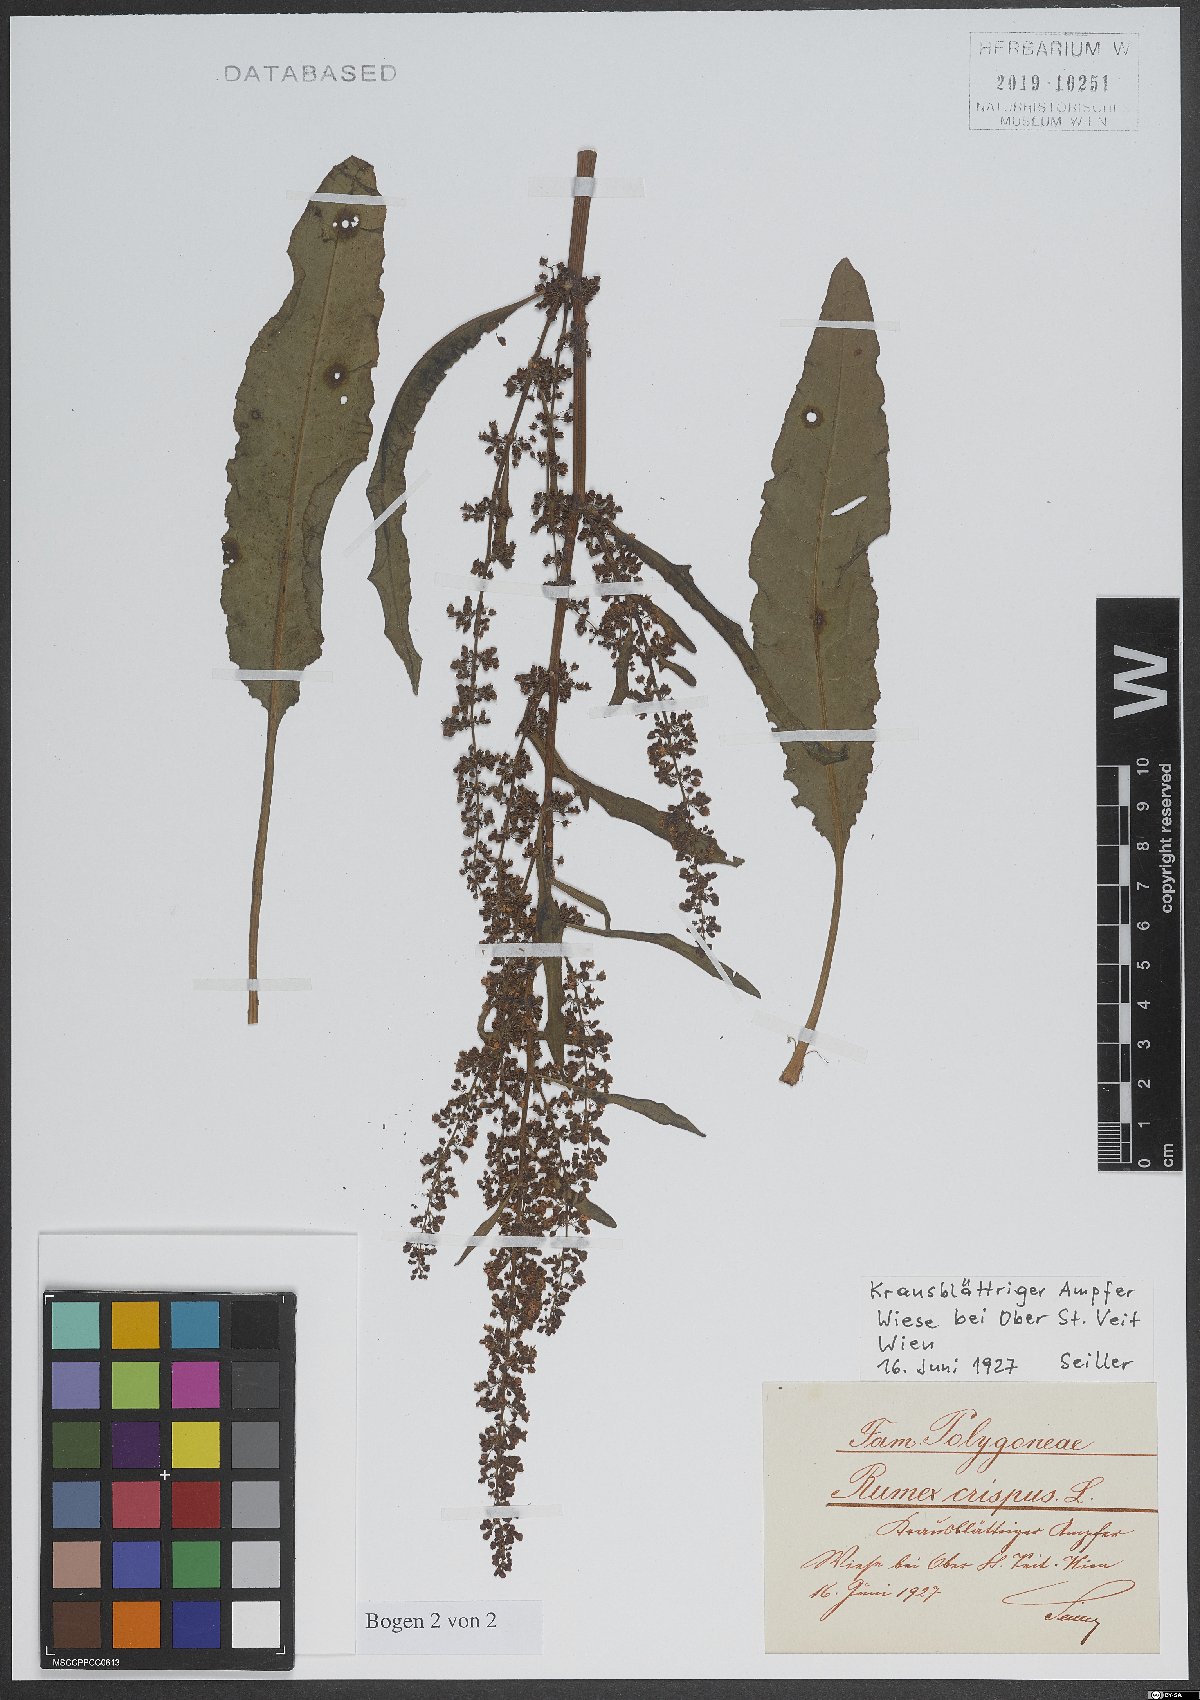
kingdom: Plantae
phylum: Tracheophyta
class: Magnoliopsida
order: Caryophyllales
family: Polygonaceae
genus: Rumex
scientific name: Rumex crispus
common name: Curled dock
